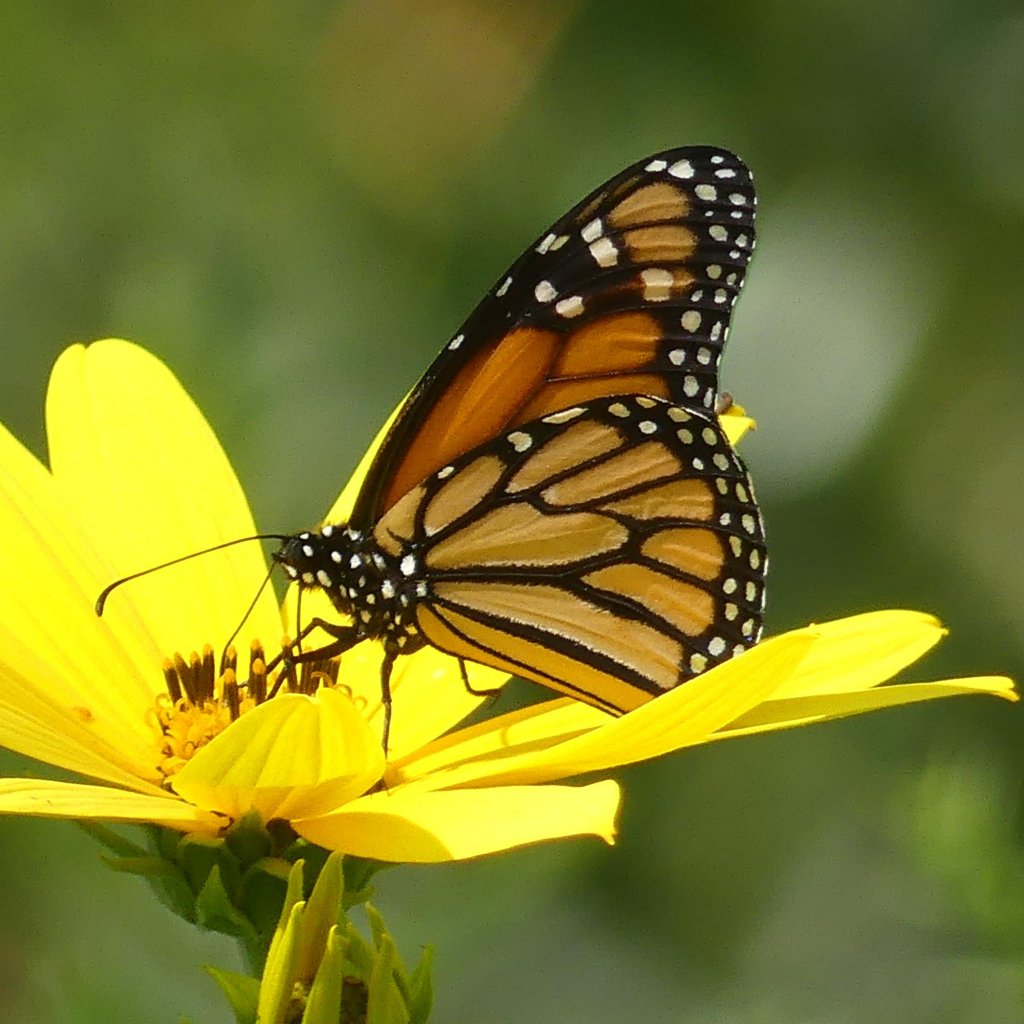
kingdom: Animalia
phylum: Arthropoda
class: Insecta
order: Lepidoptera
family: Nymphalidae
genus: Danaus
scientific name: Danaus plexippus
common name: Monarch
